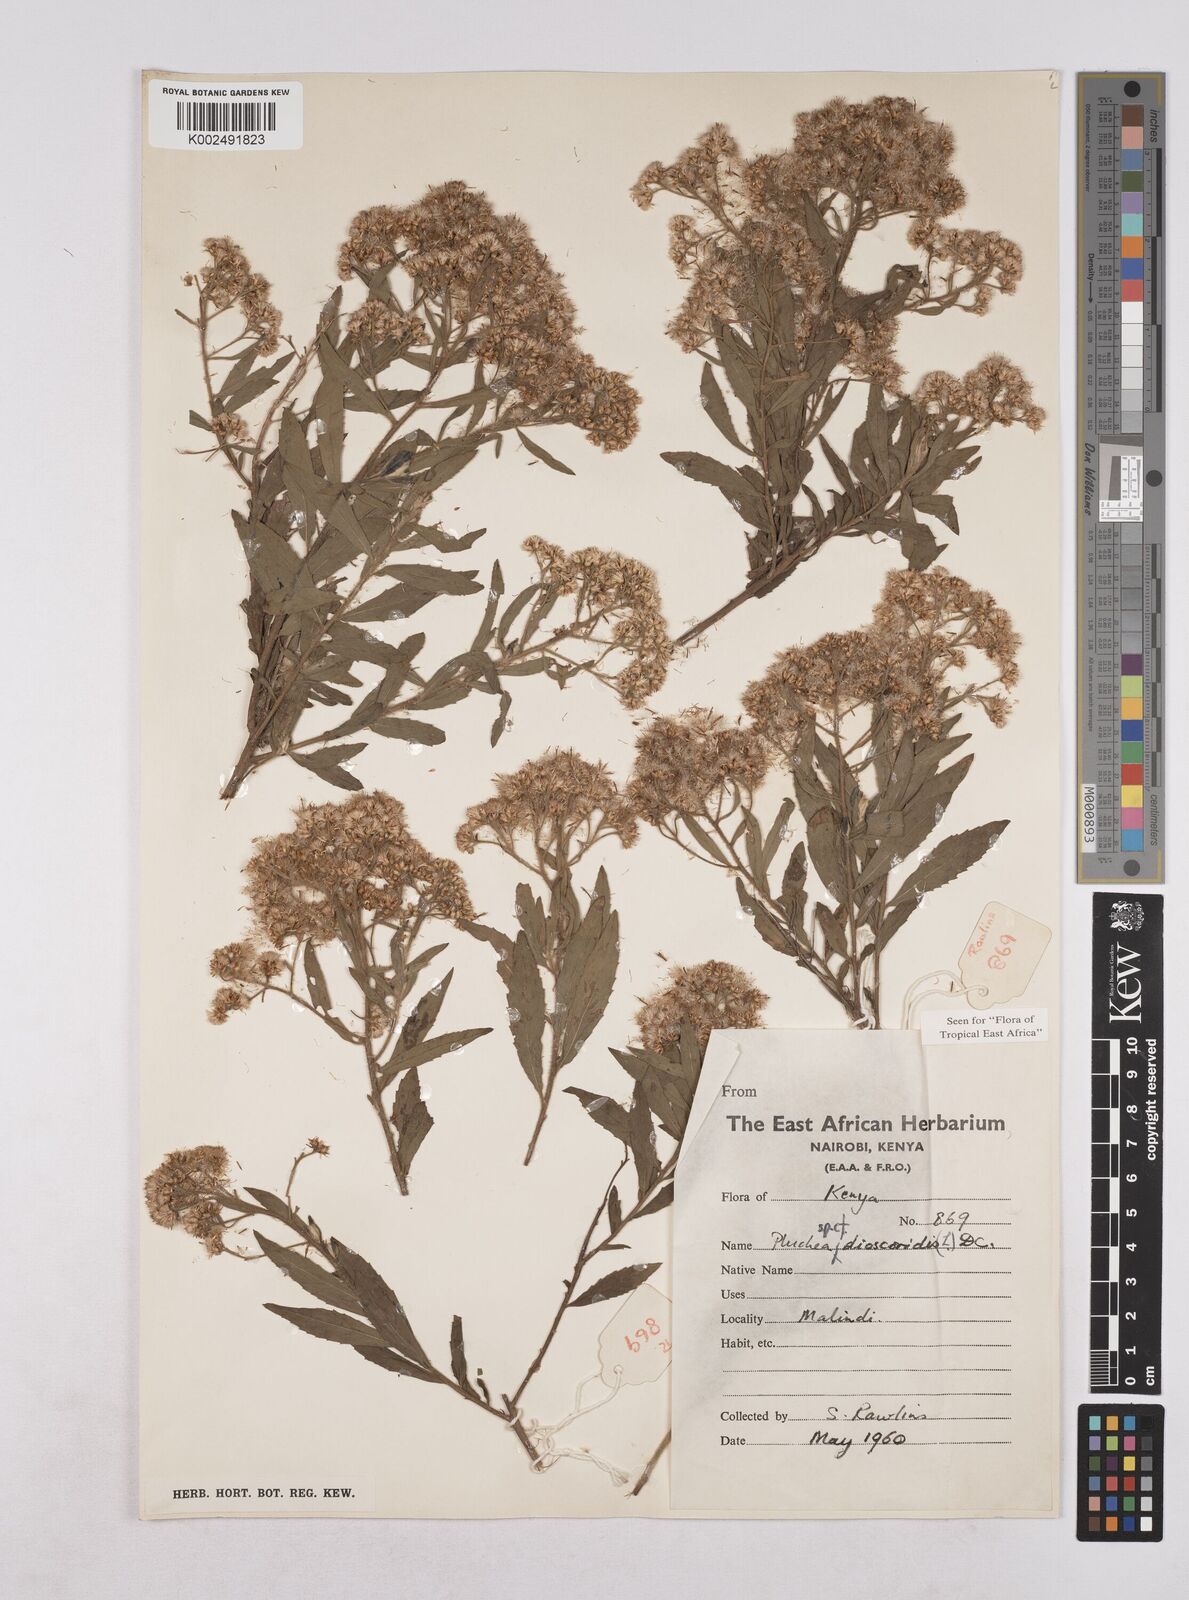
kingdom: Plantae
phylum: Tracheophyta
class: Magnoliopsida
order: Asterales
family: Asteraceae
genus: Pluchea
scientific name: Pluchea dioscoridis
